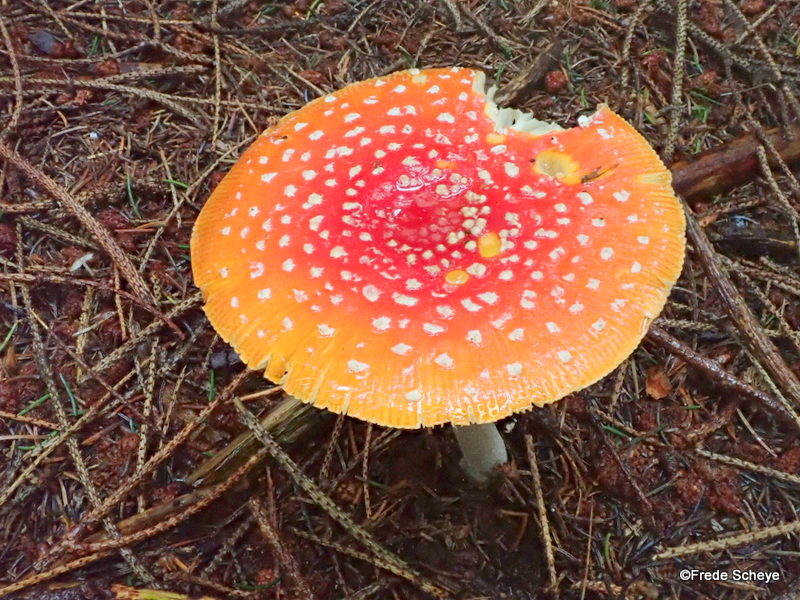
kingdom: Fungi
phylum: Basidiomycota
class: Agaricomycetes
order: Agaricales
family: Amanitaceae
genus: Amanita
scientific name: Amanita muscaria
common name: rød fluesvamp
